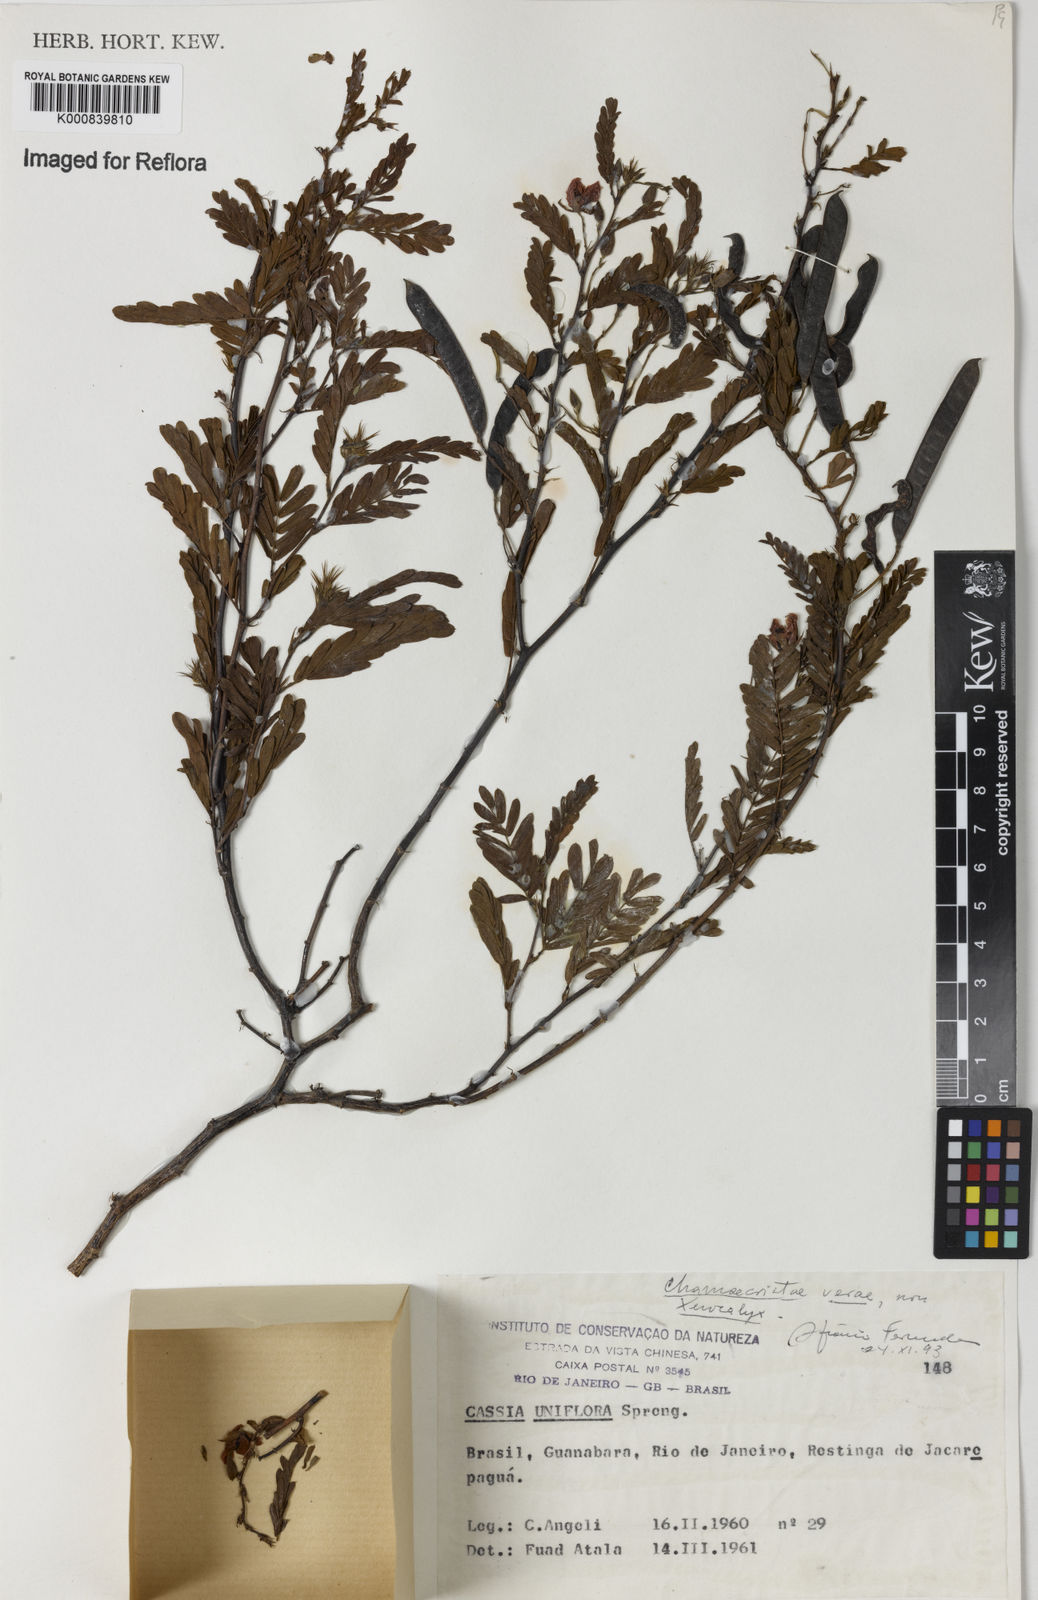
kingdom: Plantae
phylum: Tracheophyta
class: Magnoliopsida
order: Fabales
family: Fabaceae
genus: Chamaecrista
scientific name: Chamaecrista ramosa
